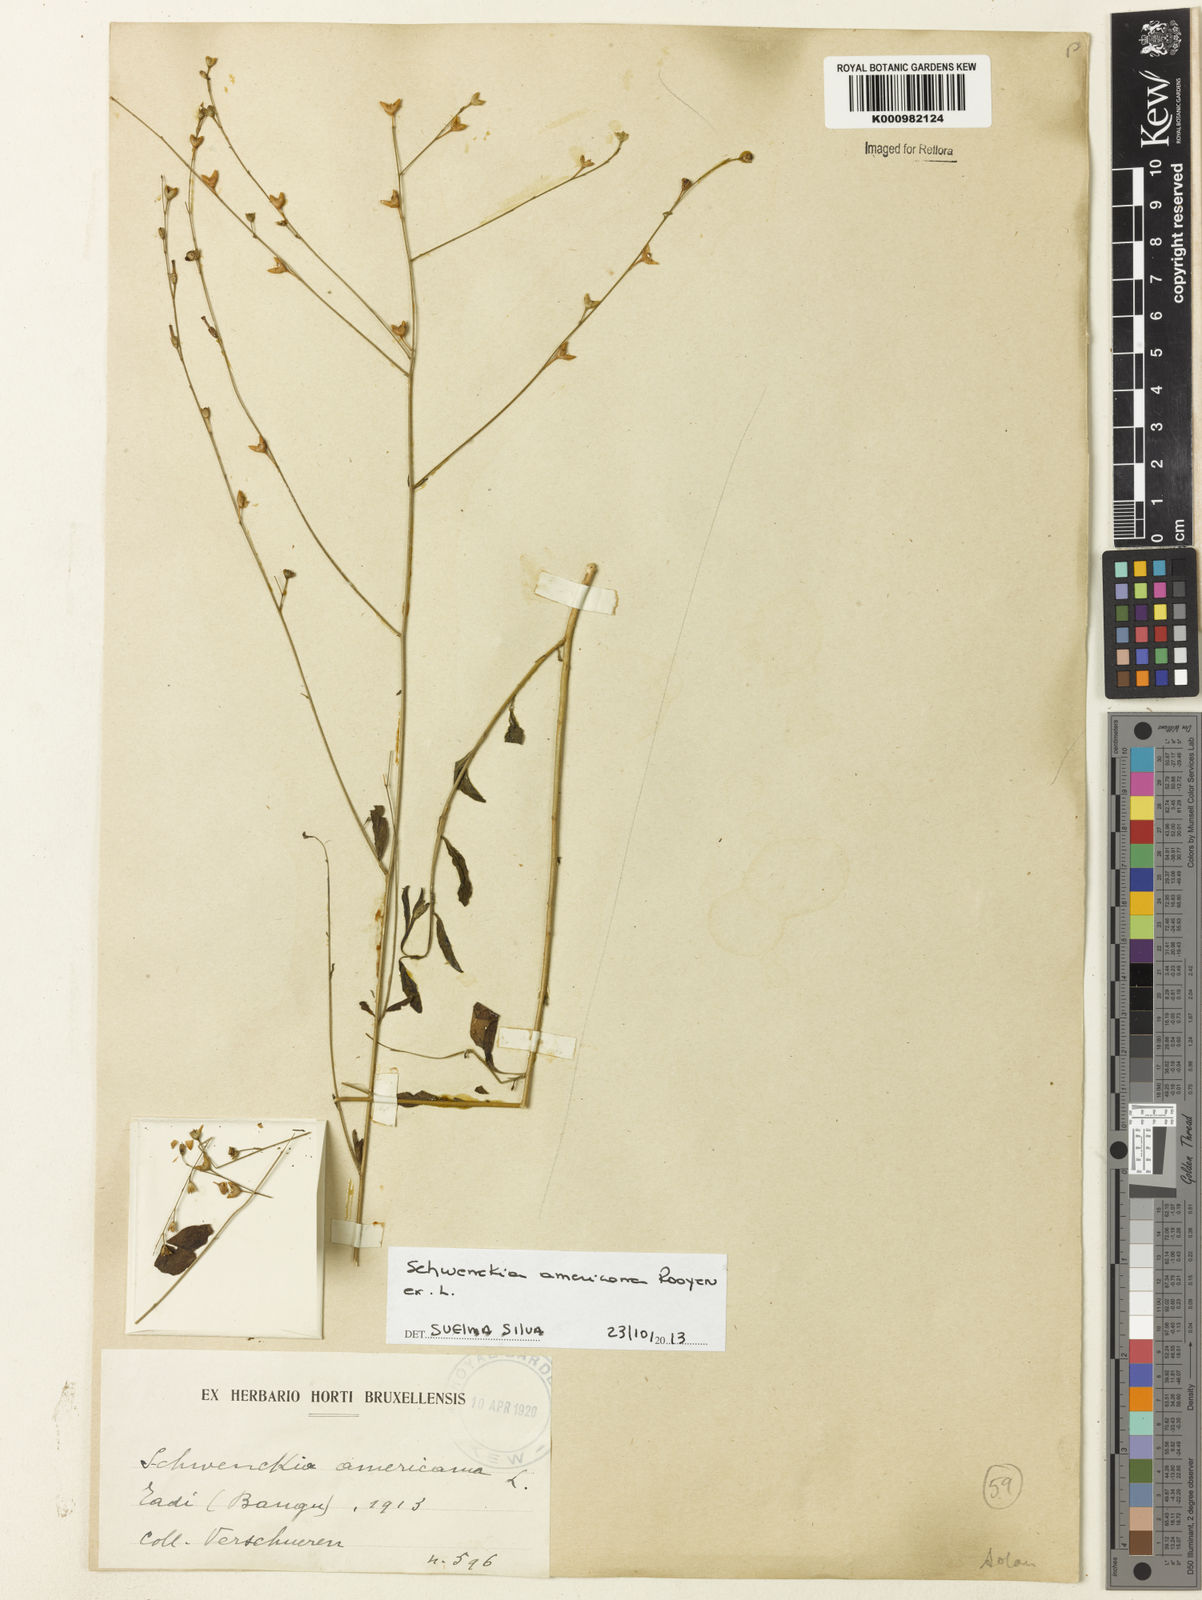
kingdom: Plantae
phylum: Tracheophyta
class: Magnoliopsida
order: Solanales
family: Solanaceae
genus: Schwenckia
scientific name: Schwenckia americana
